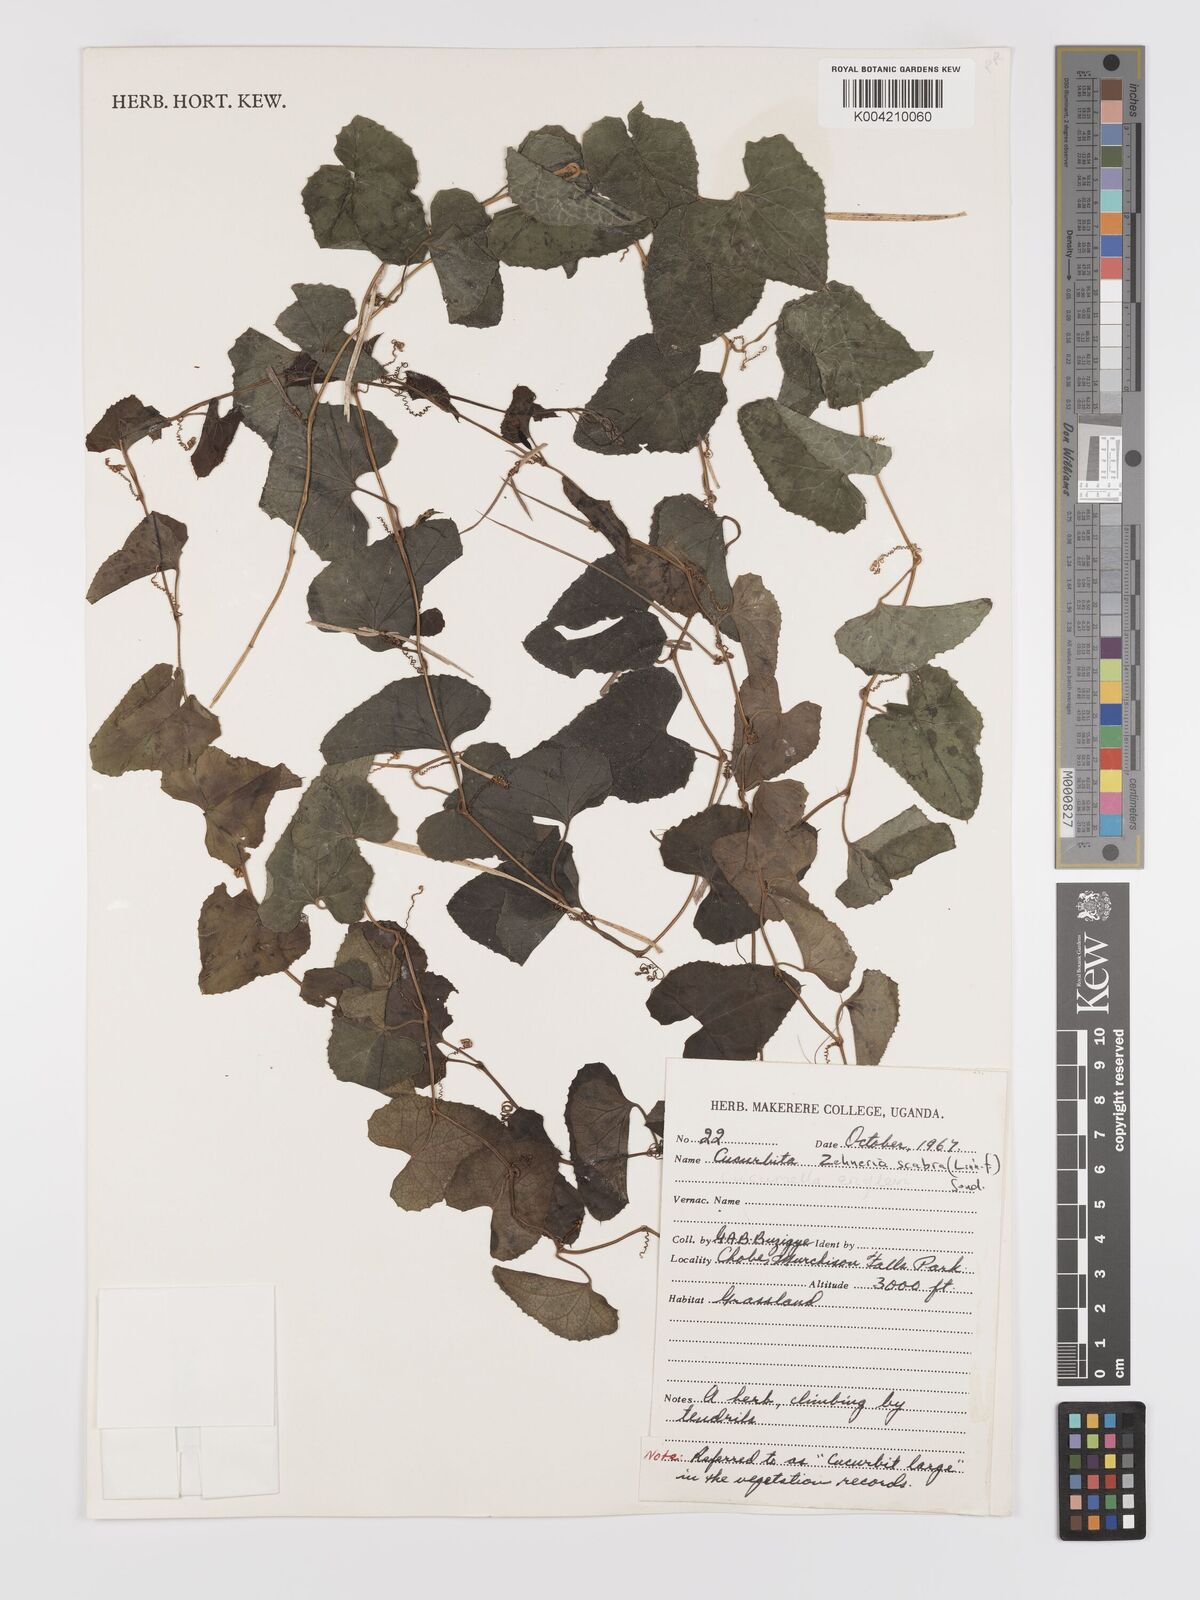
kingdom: Plantae
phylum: Tracheophyta
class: Magnoliopsida
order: Cucurbitales
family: Cucurbitaceae
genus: Zehneria
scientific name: Zehneria scabra
